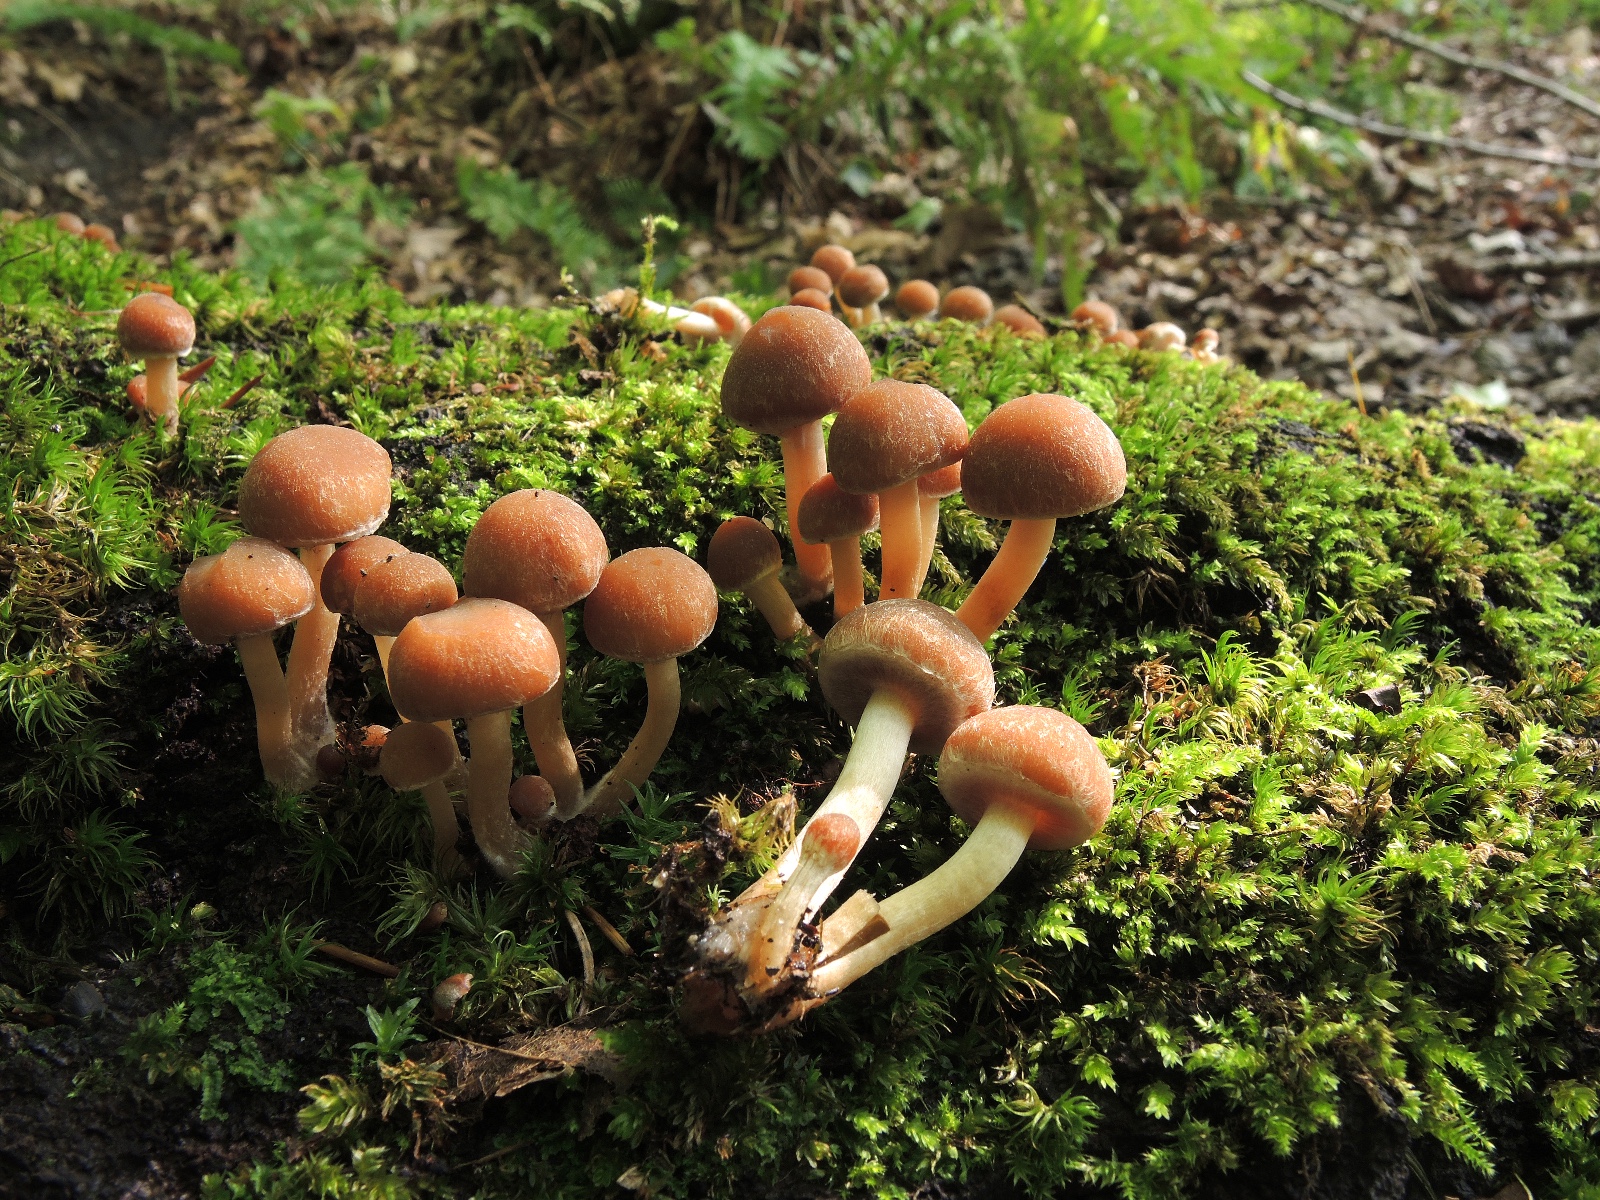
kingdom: Fungi
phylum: Basidiomycota
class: Agaricomycetes
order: Agaricales
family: Psathyrellaceae
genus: Psathyrella
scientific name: Psathyrella piluliformis
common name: lysstokket mørkhat
